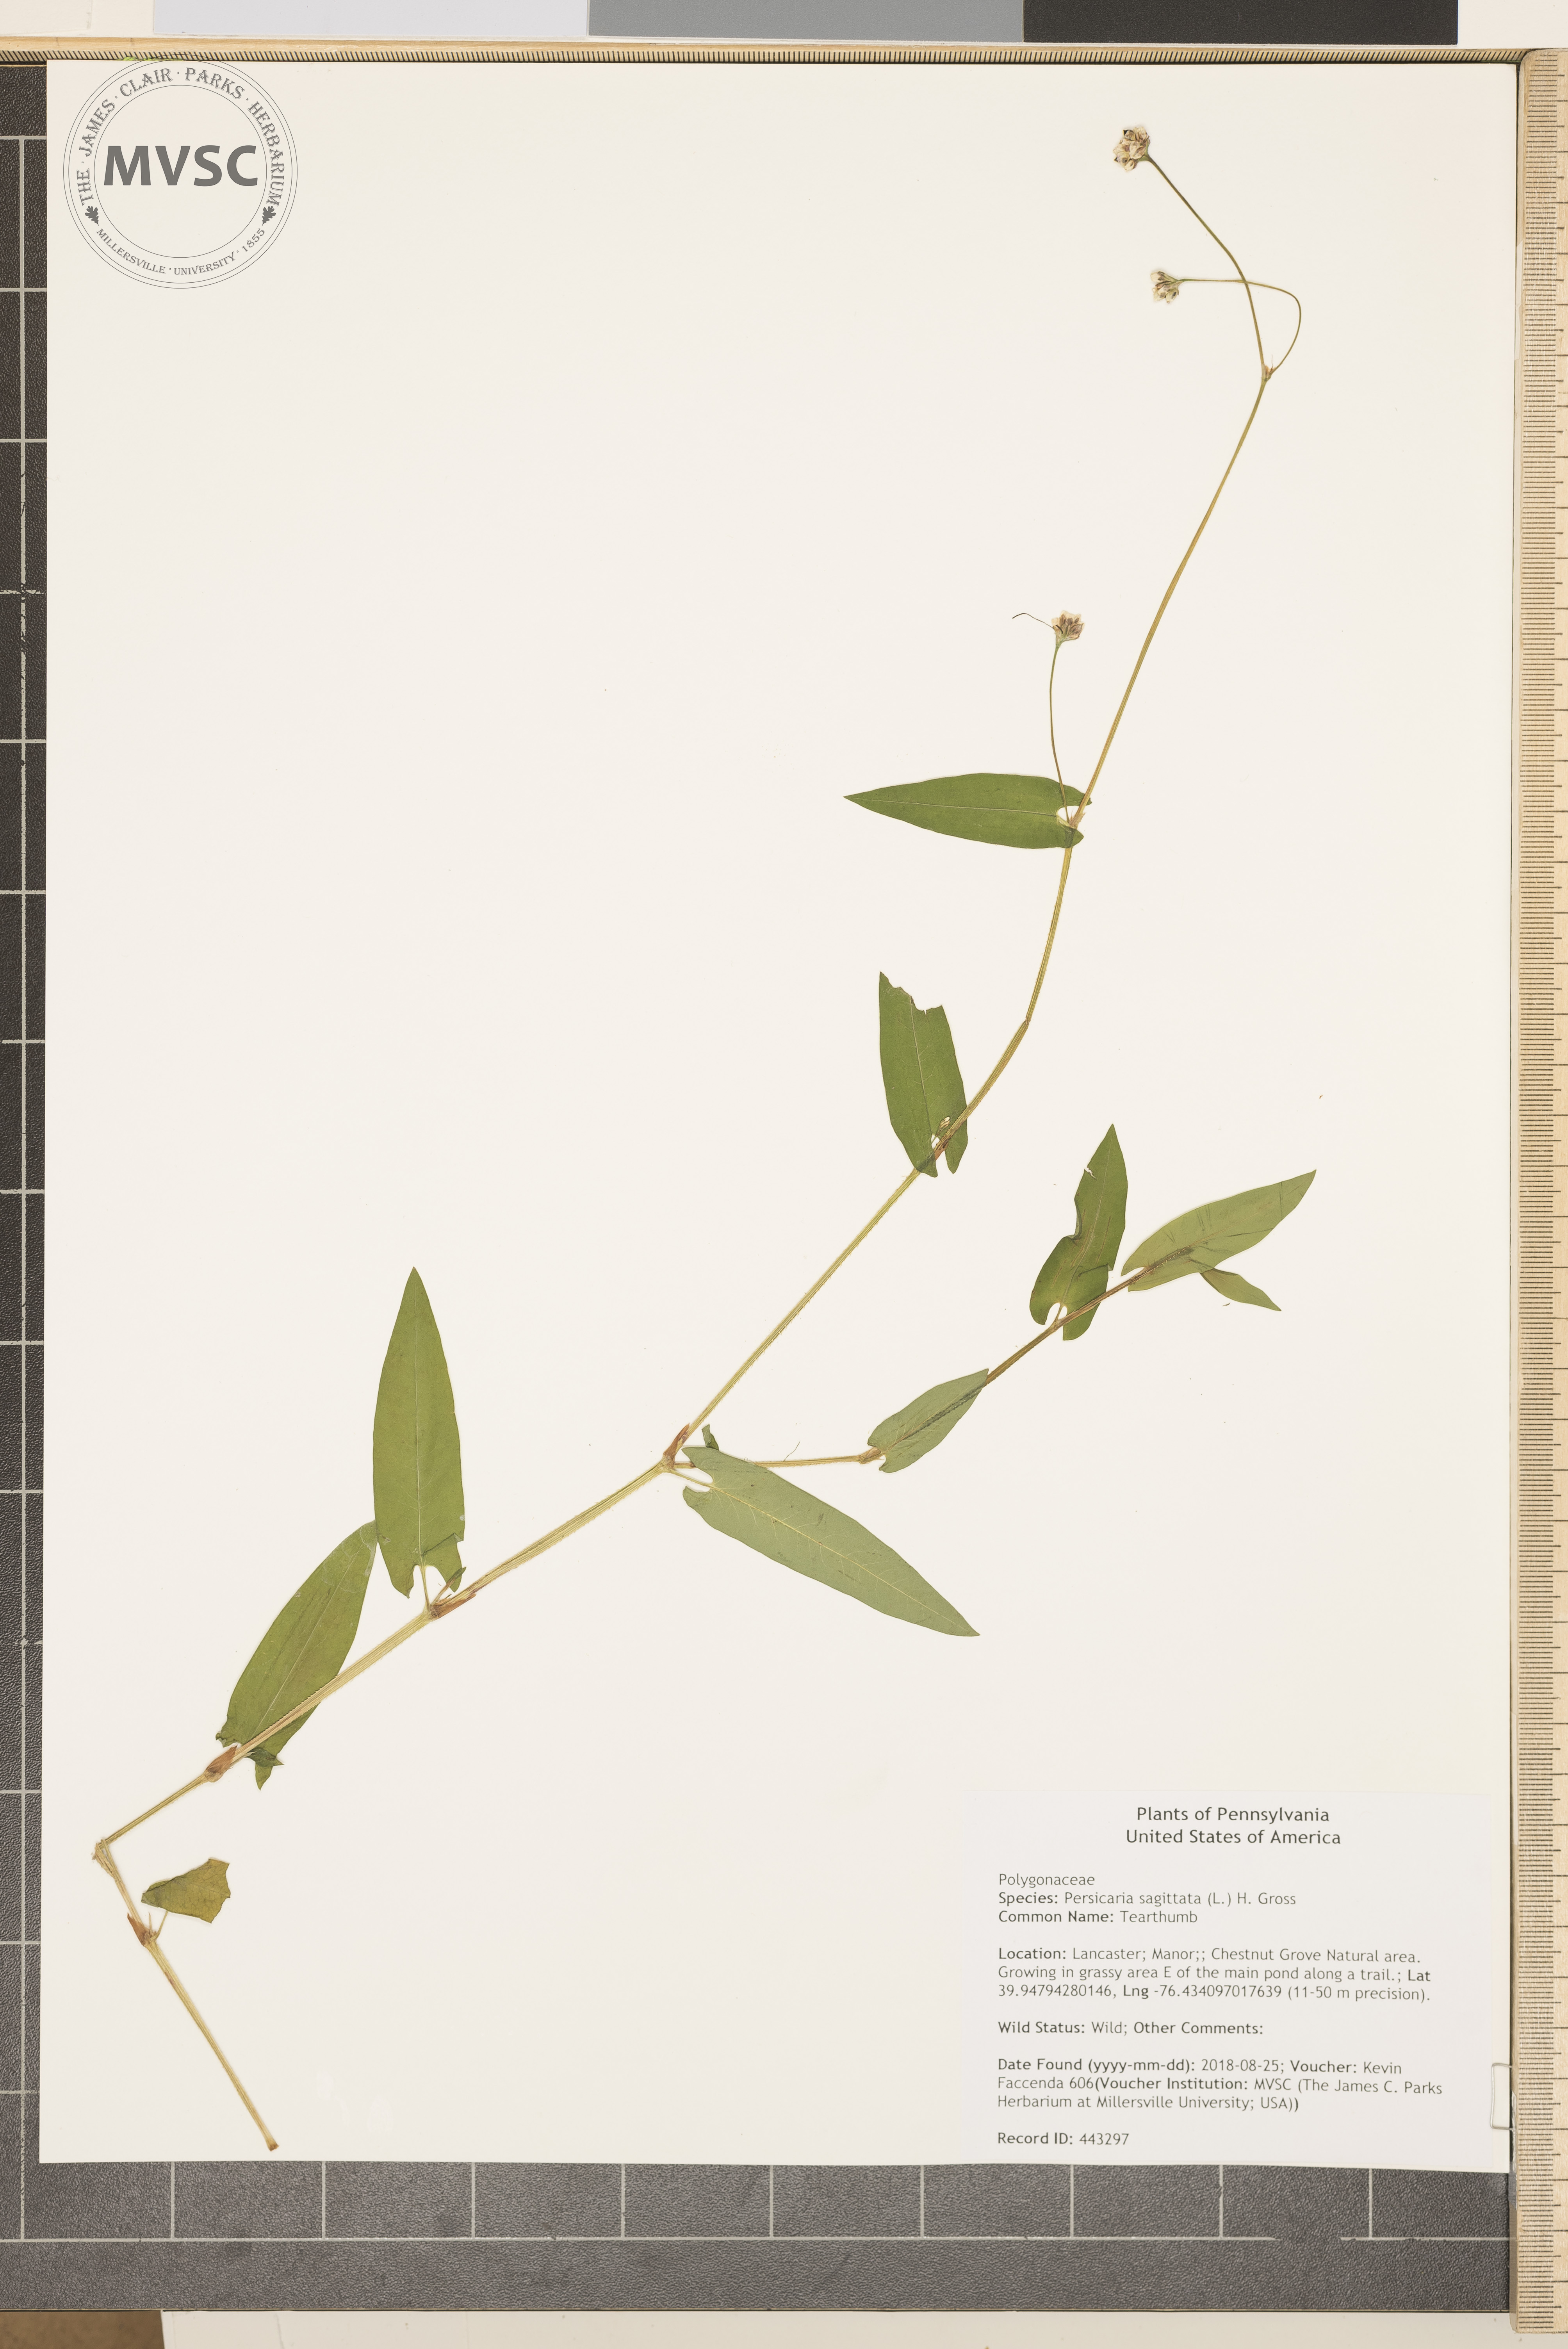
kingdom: Plantae
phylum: Tracheophyta
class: Magnoliopsida
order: Caryophyllales
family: Polygonaceae
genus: Persicaria
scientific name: Persicaria sagittata
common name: Tearthumb
